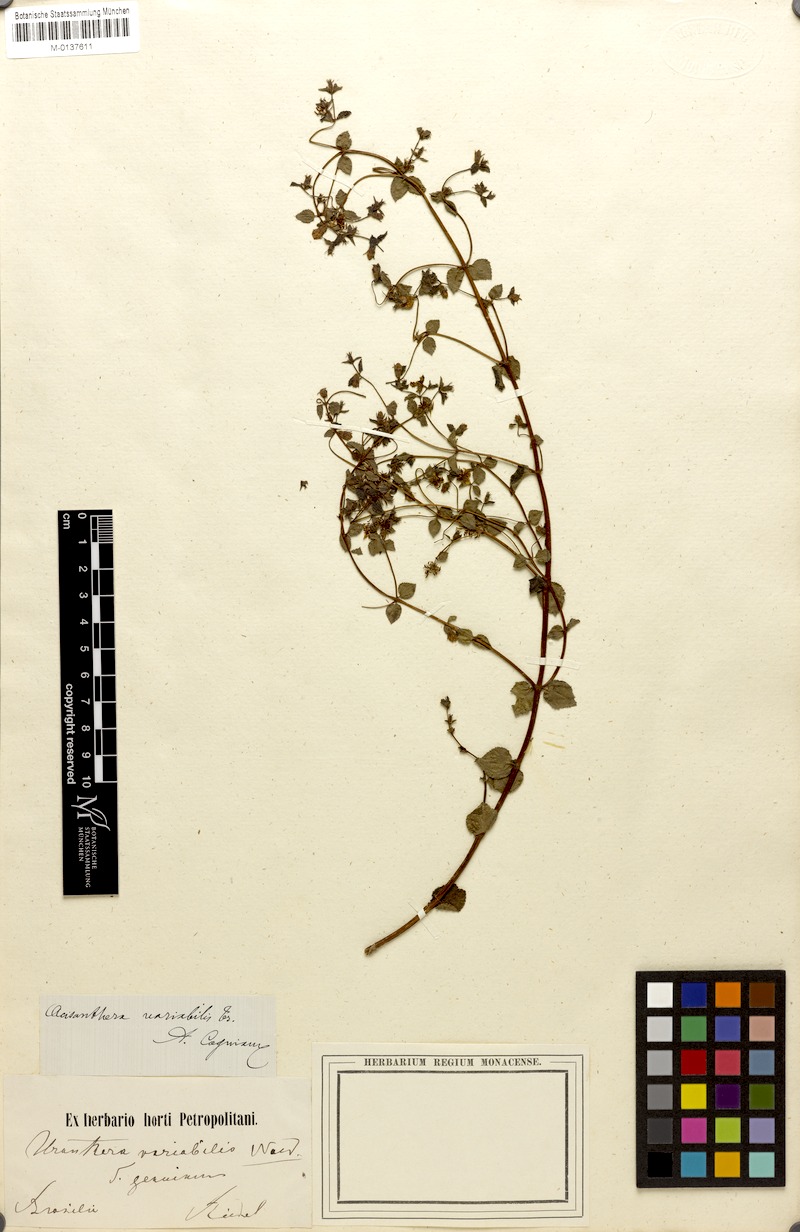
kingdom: Plantae
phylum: Tracheophyta
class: Magnoliopsida
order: Myrtales
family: Melastomataceae
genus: Acisanthera
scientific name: Acisanthera variabilis
